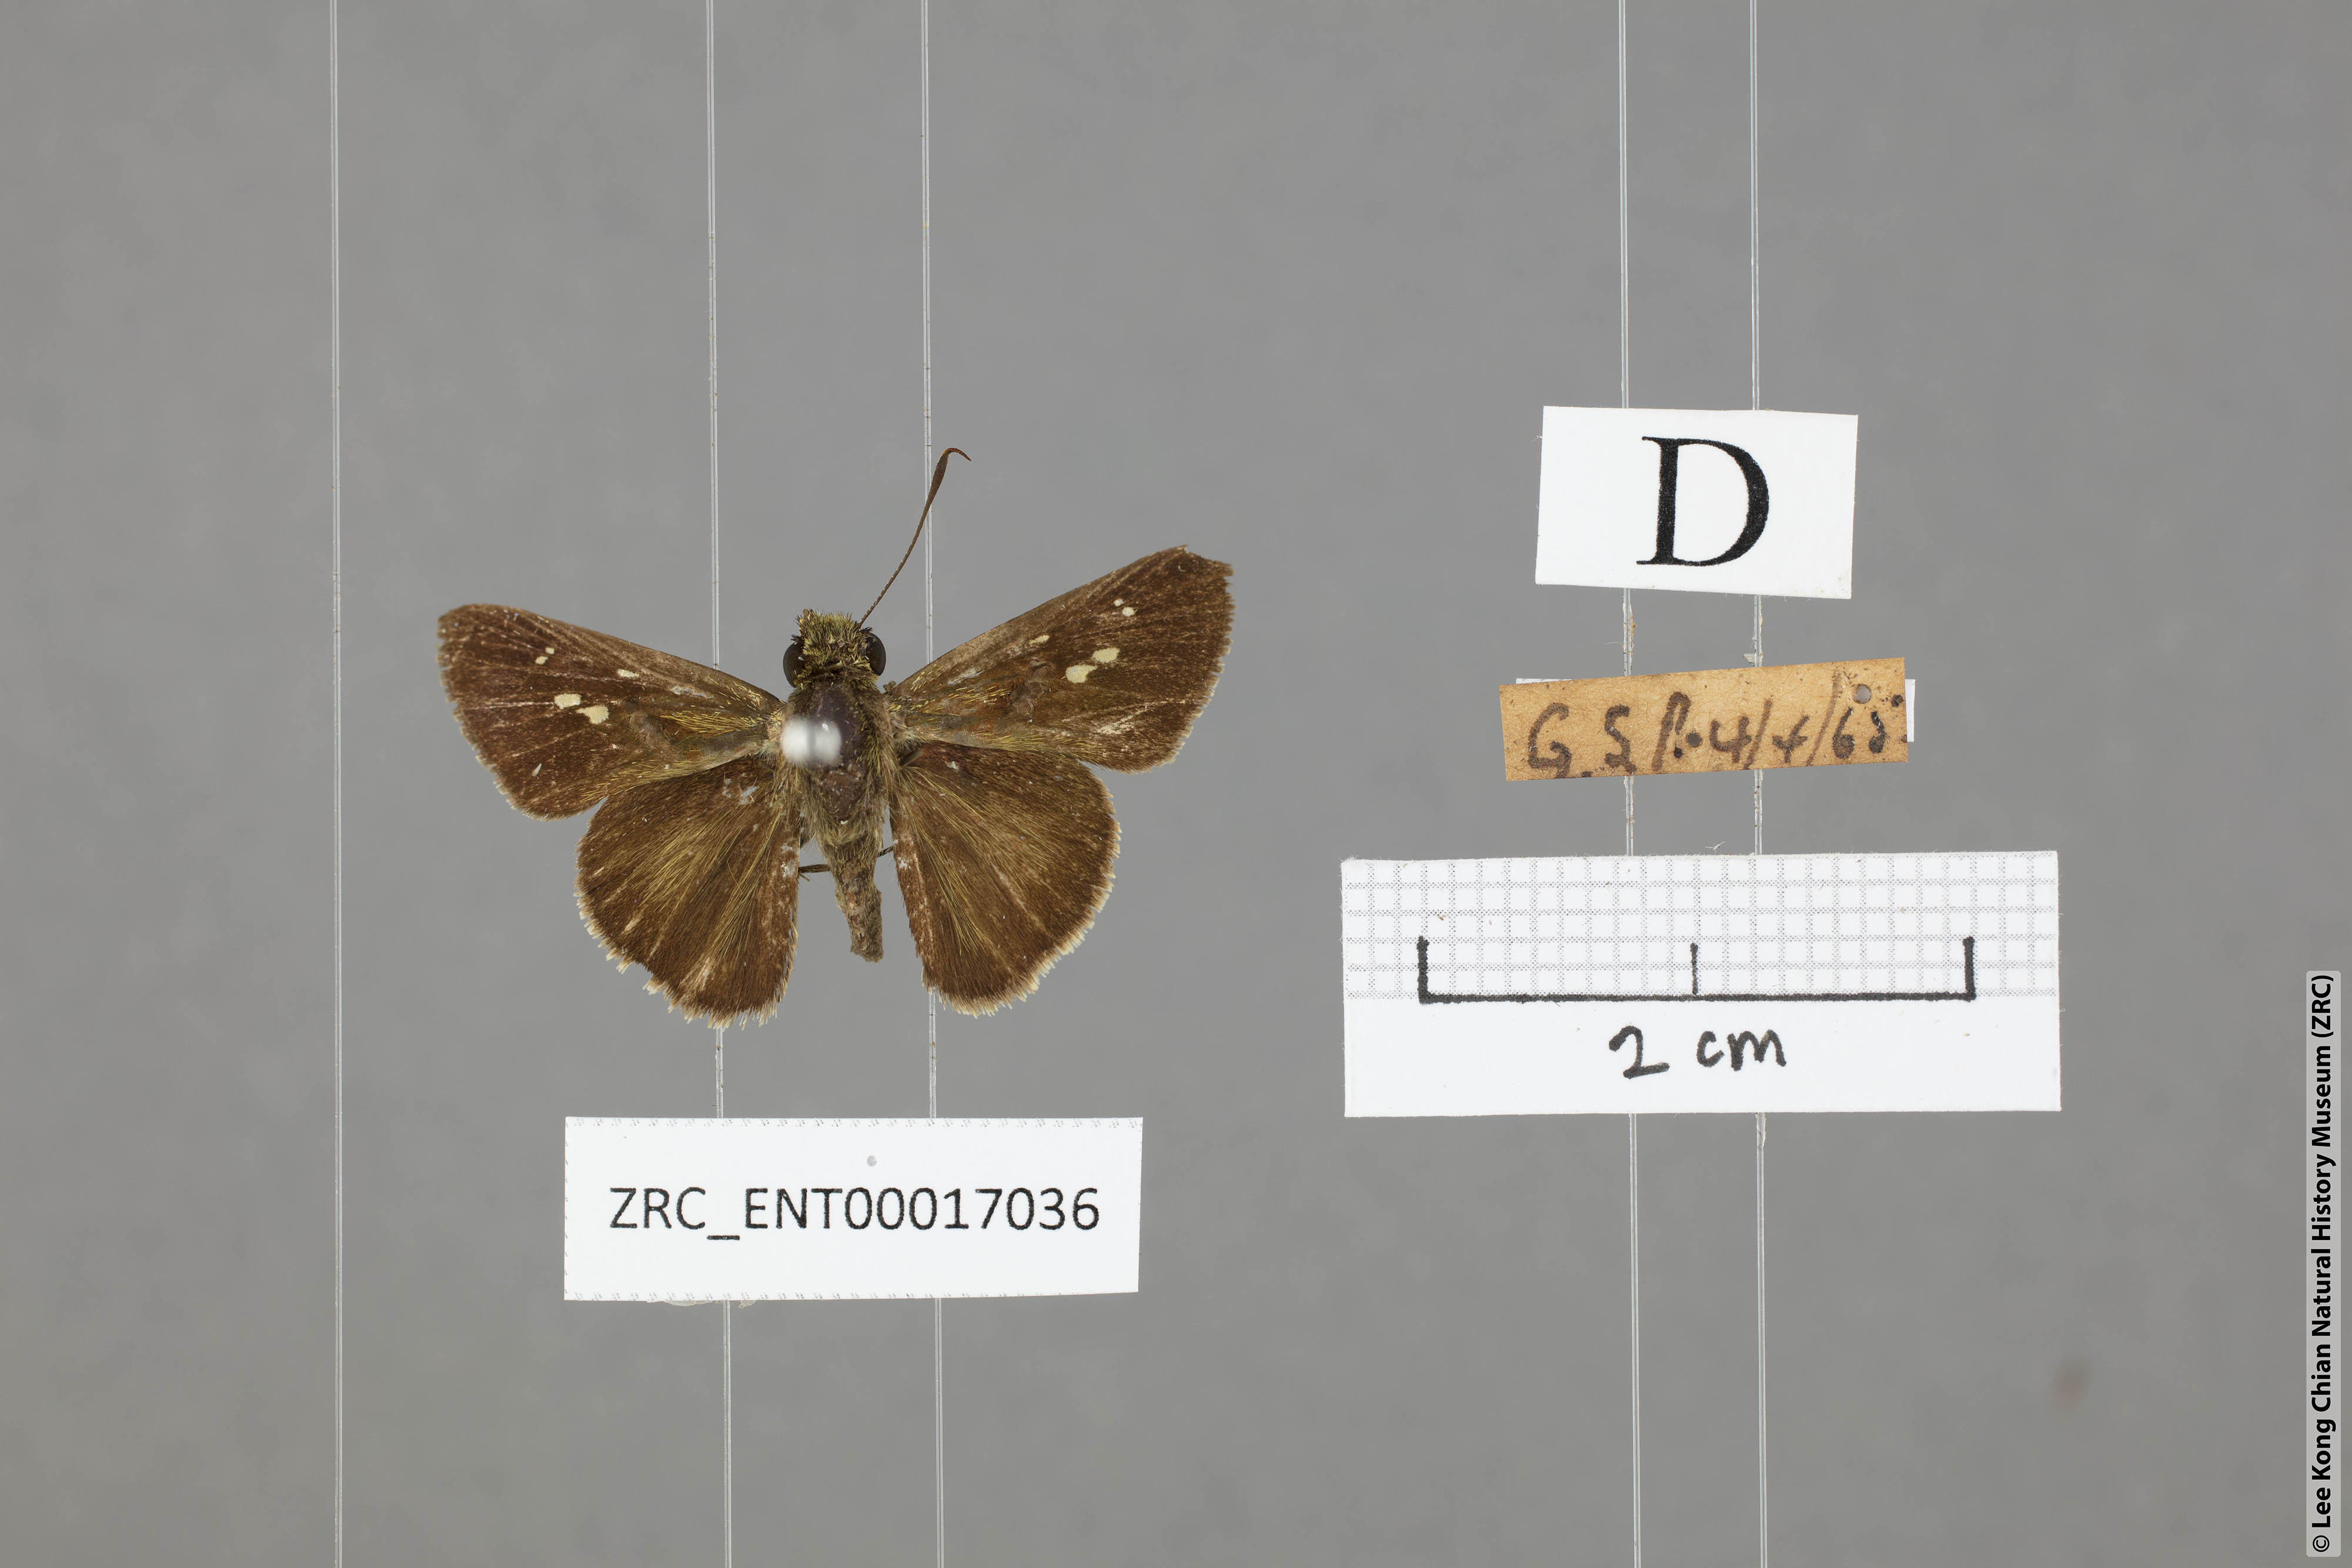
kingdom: Animalia
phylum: Arthropoda
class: Insecta
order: Lepidoptera
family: Hesperiidae
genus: Halpe
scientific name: Halpe pelethronix
